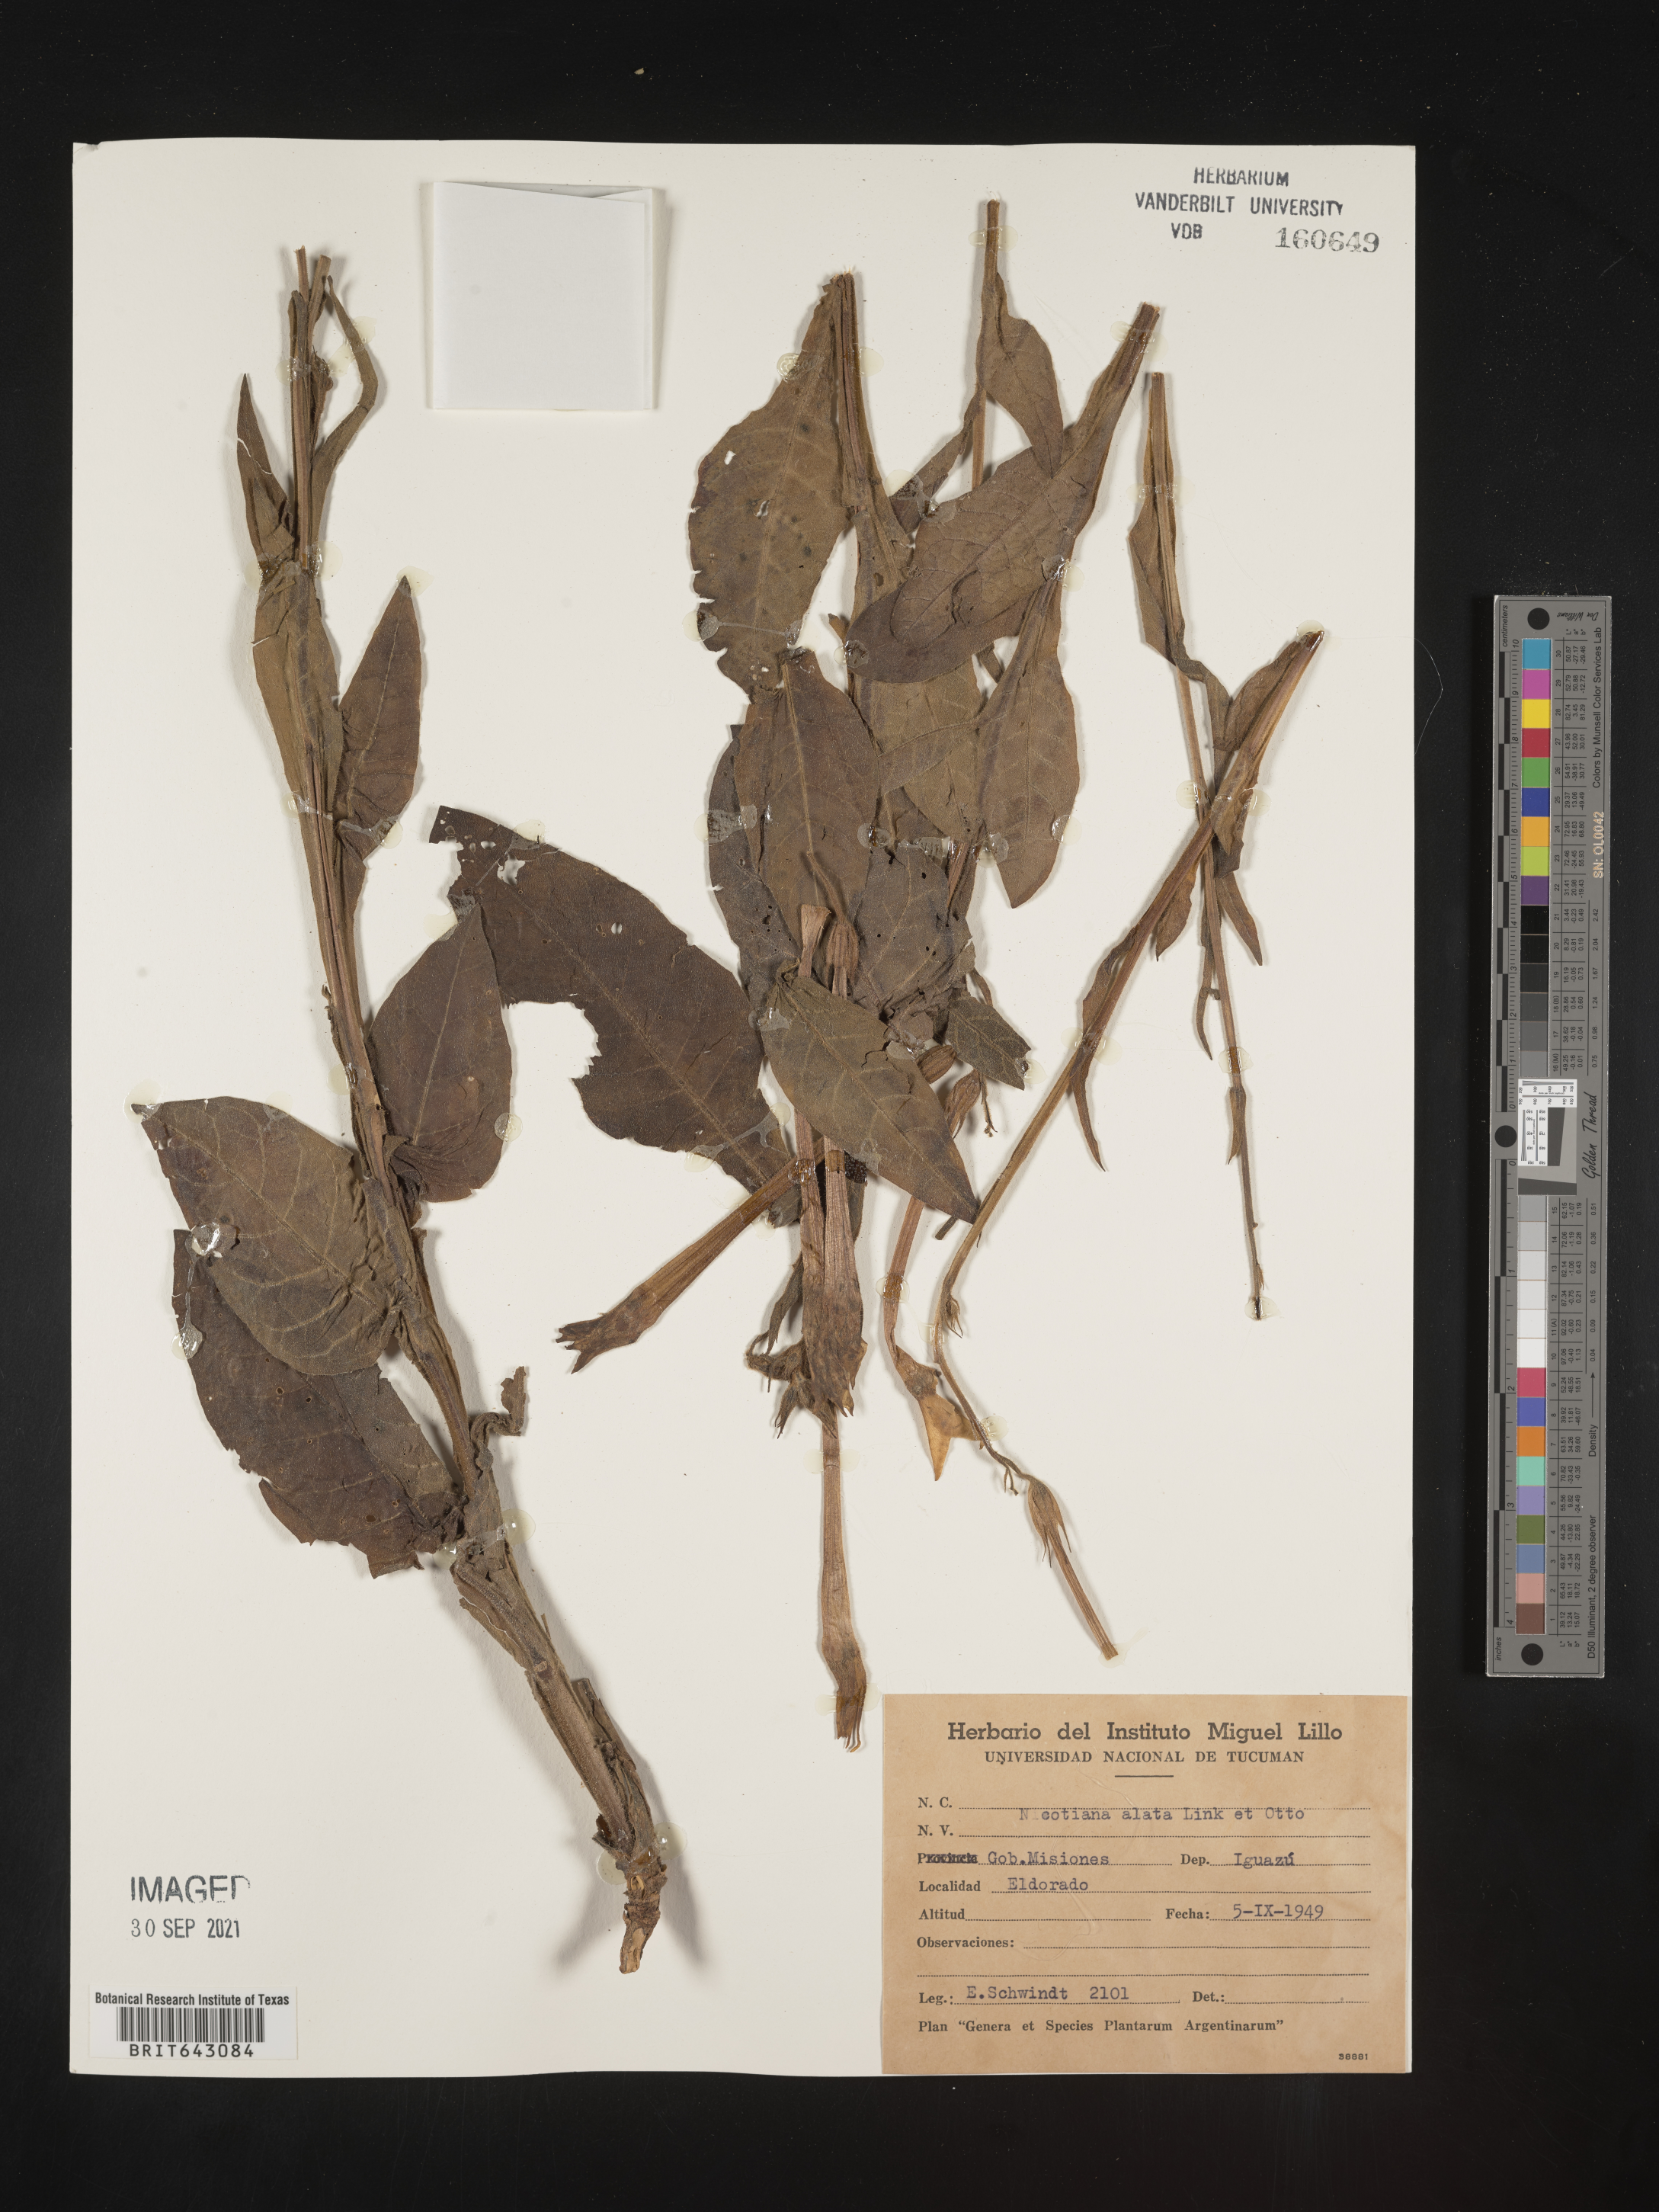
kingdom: Plantae
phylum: Tracheophyta
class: Magnoliopsida
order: Solanales
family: Solanaceae
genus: Nicotiana
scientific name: Nicotiana
